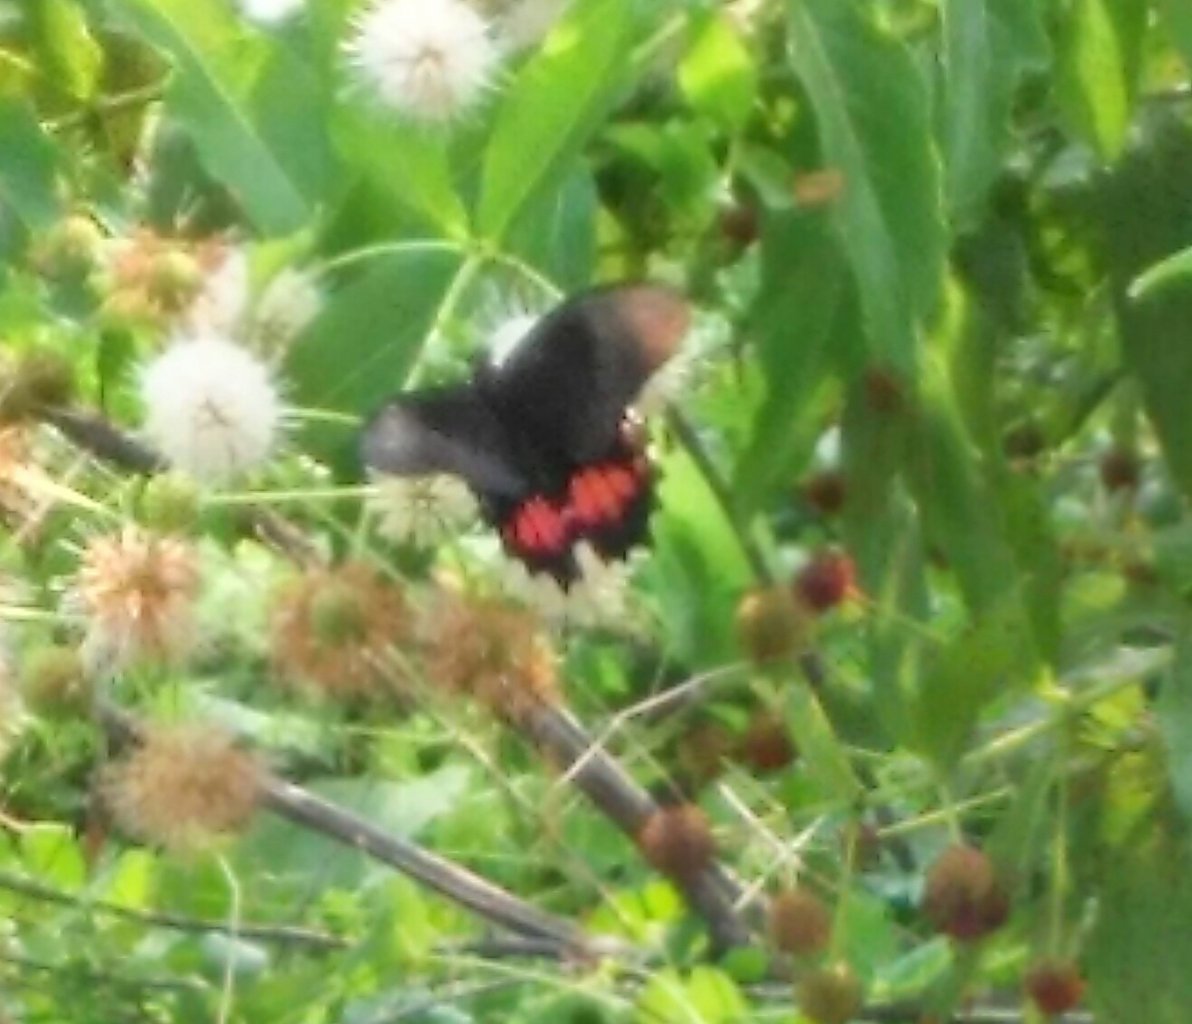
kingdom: Animalia
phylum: Arthropoda
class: Insecta
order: Lepidoptera
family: Papilionidae
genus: Papilio
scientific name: Papilio anchisiades
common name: Ruby-spotted Swallowtail
